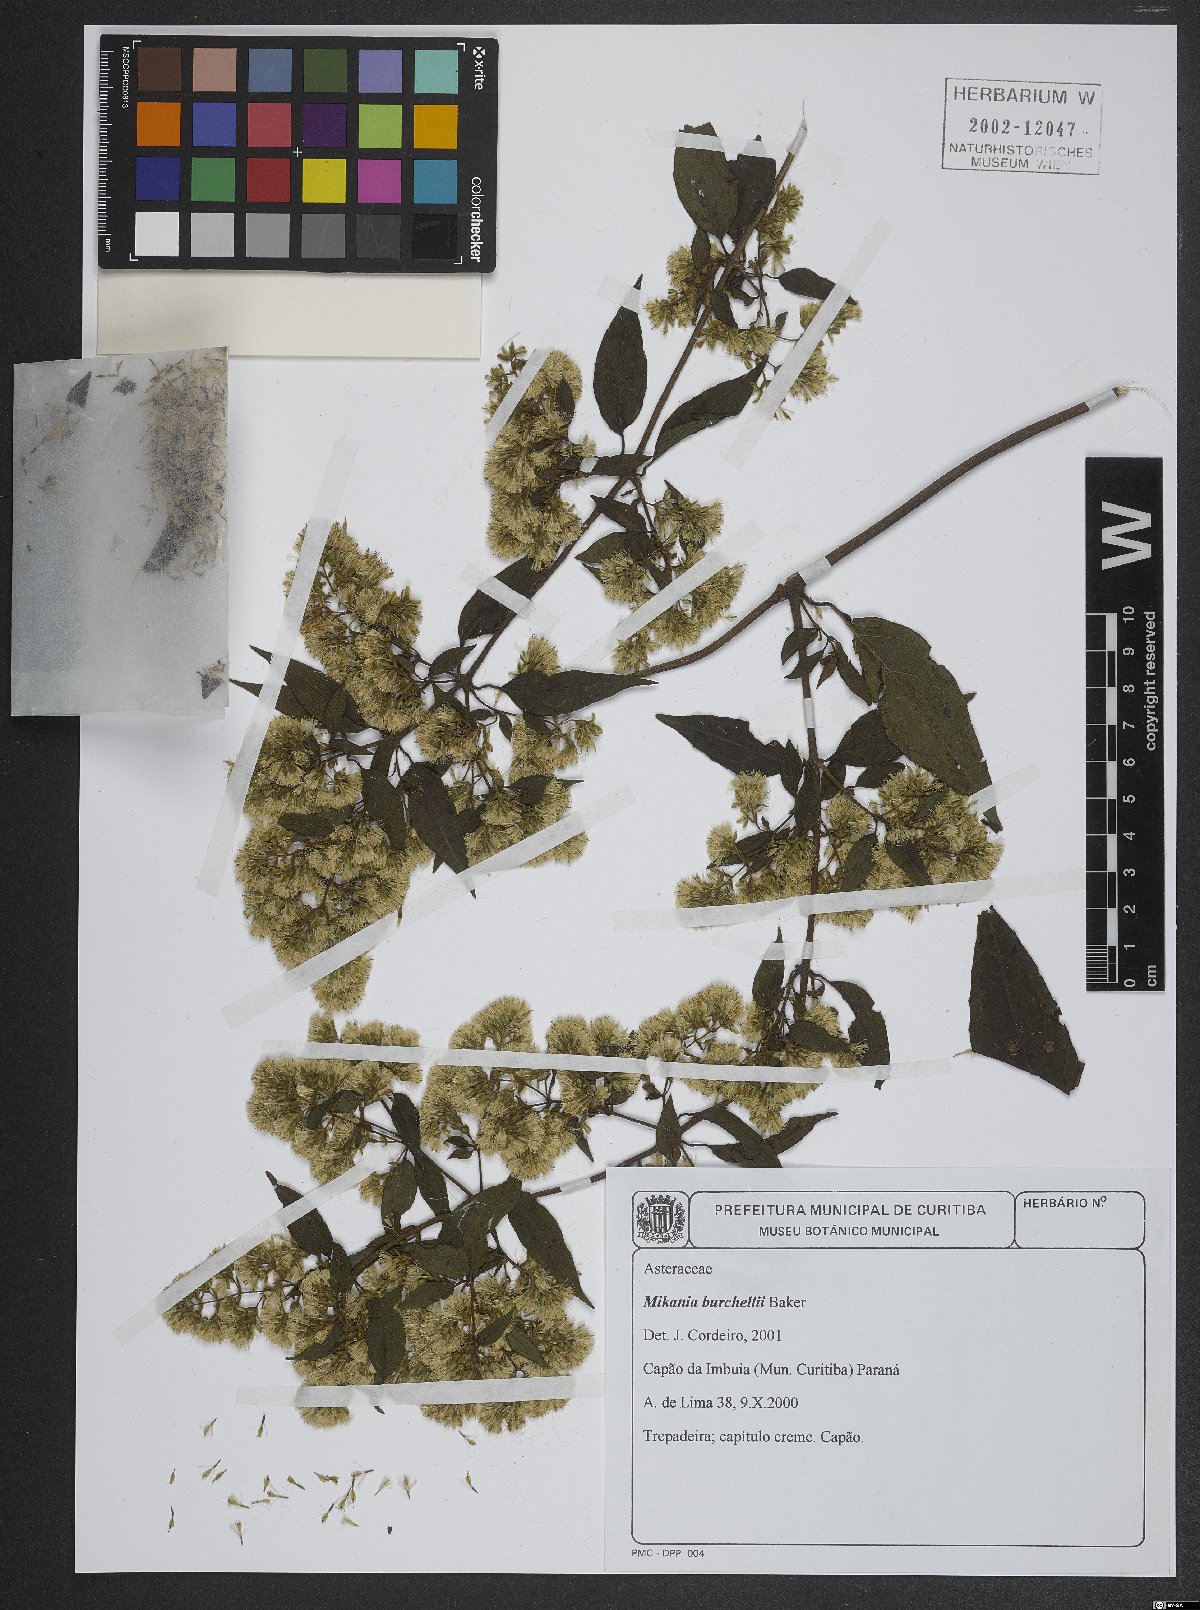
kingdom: Plantae
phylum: Tracheophyta
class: Magnoliopsida
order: Asterales
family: Asteraceae
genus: Mikania
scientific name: Mikania burchellii
